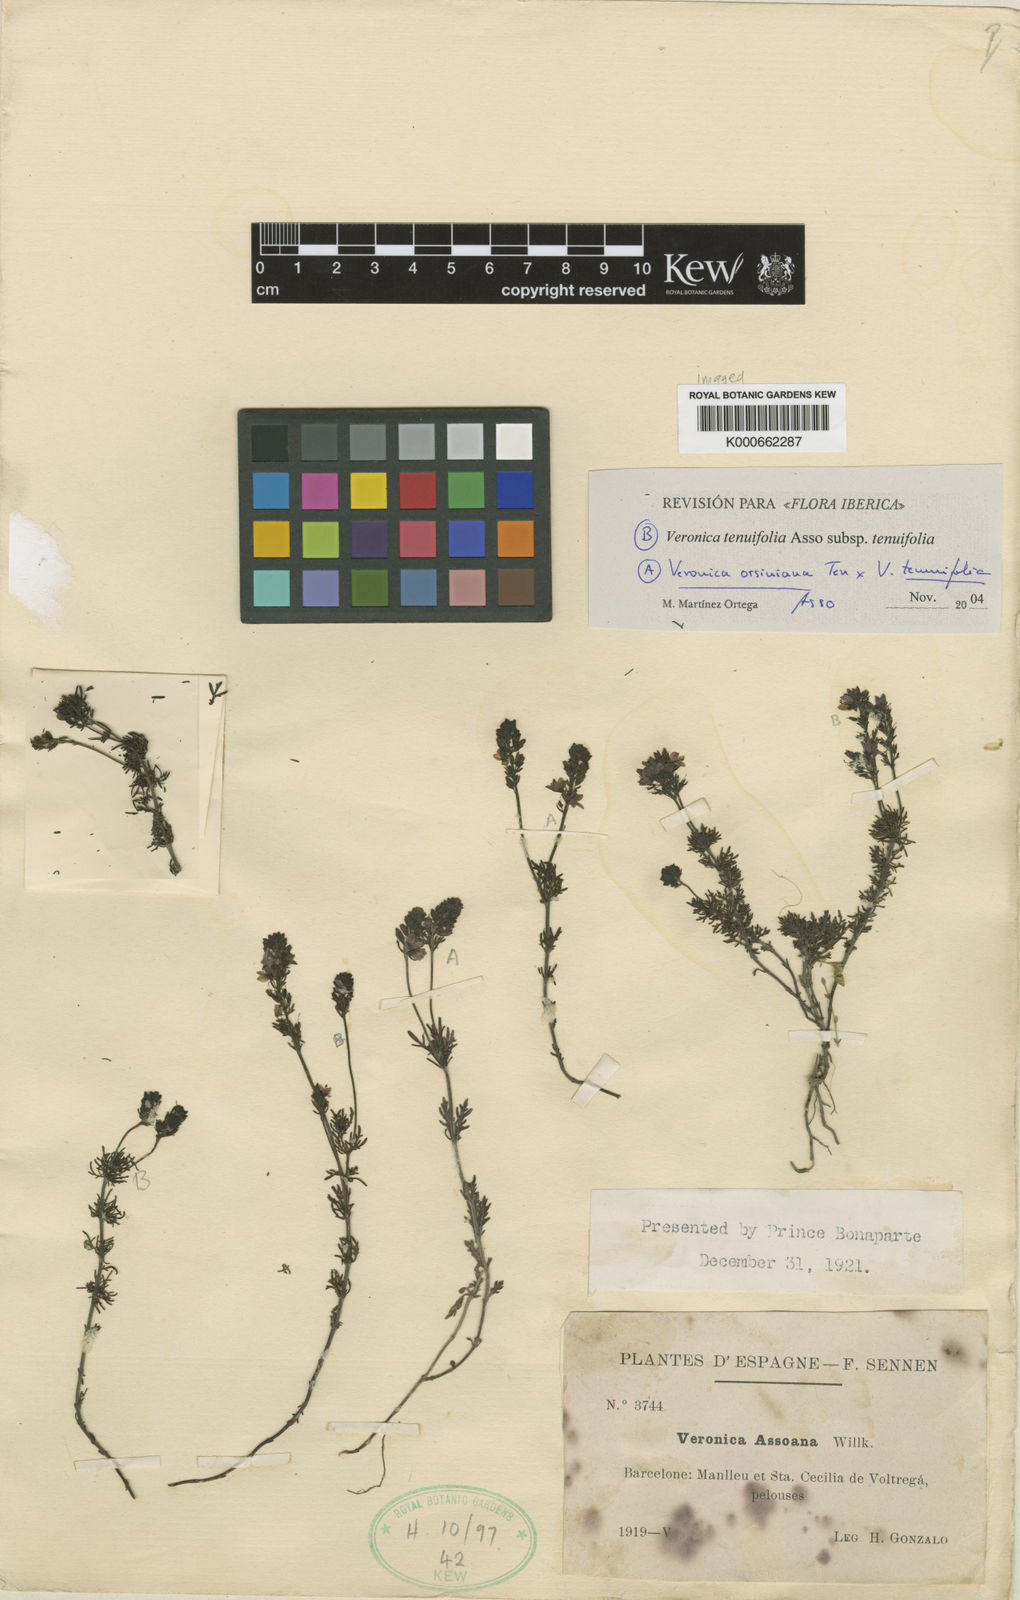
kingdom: Plantae
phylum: Tracheophyta
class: Magnoliopsida
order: Lamiales
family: Plantaginaceae
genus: Veronica
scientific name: Veronica tenuifolia
